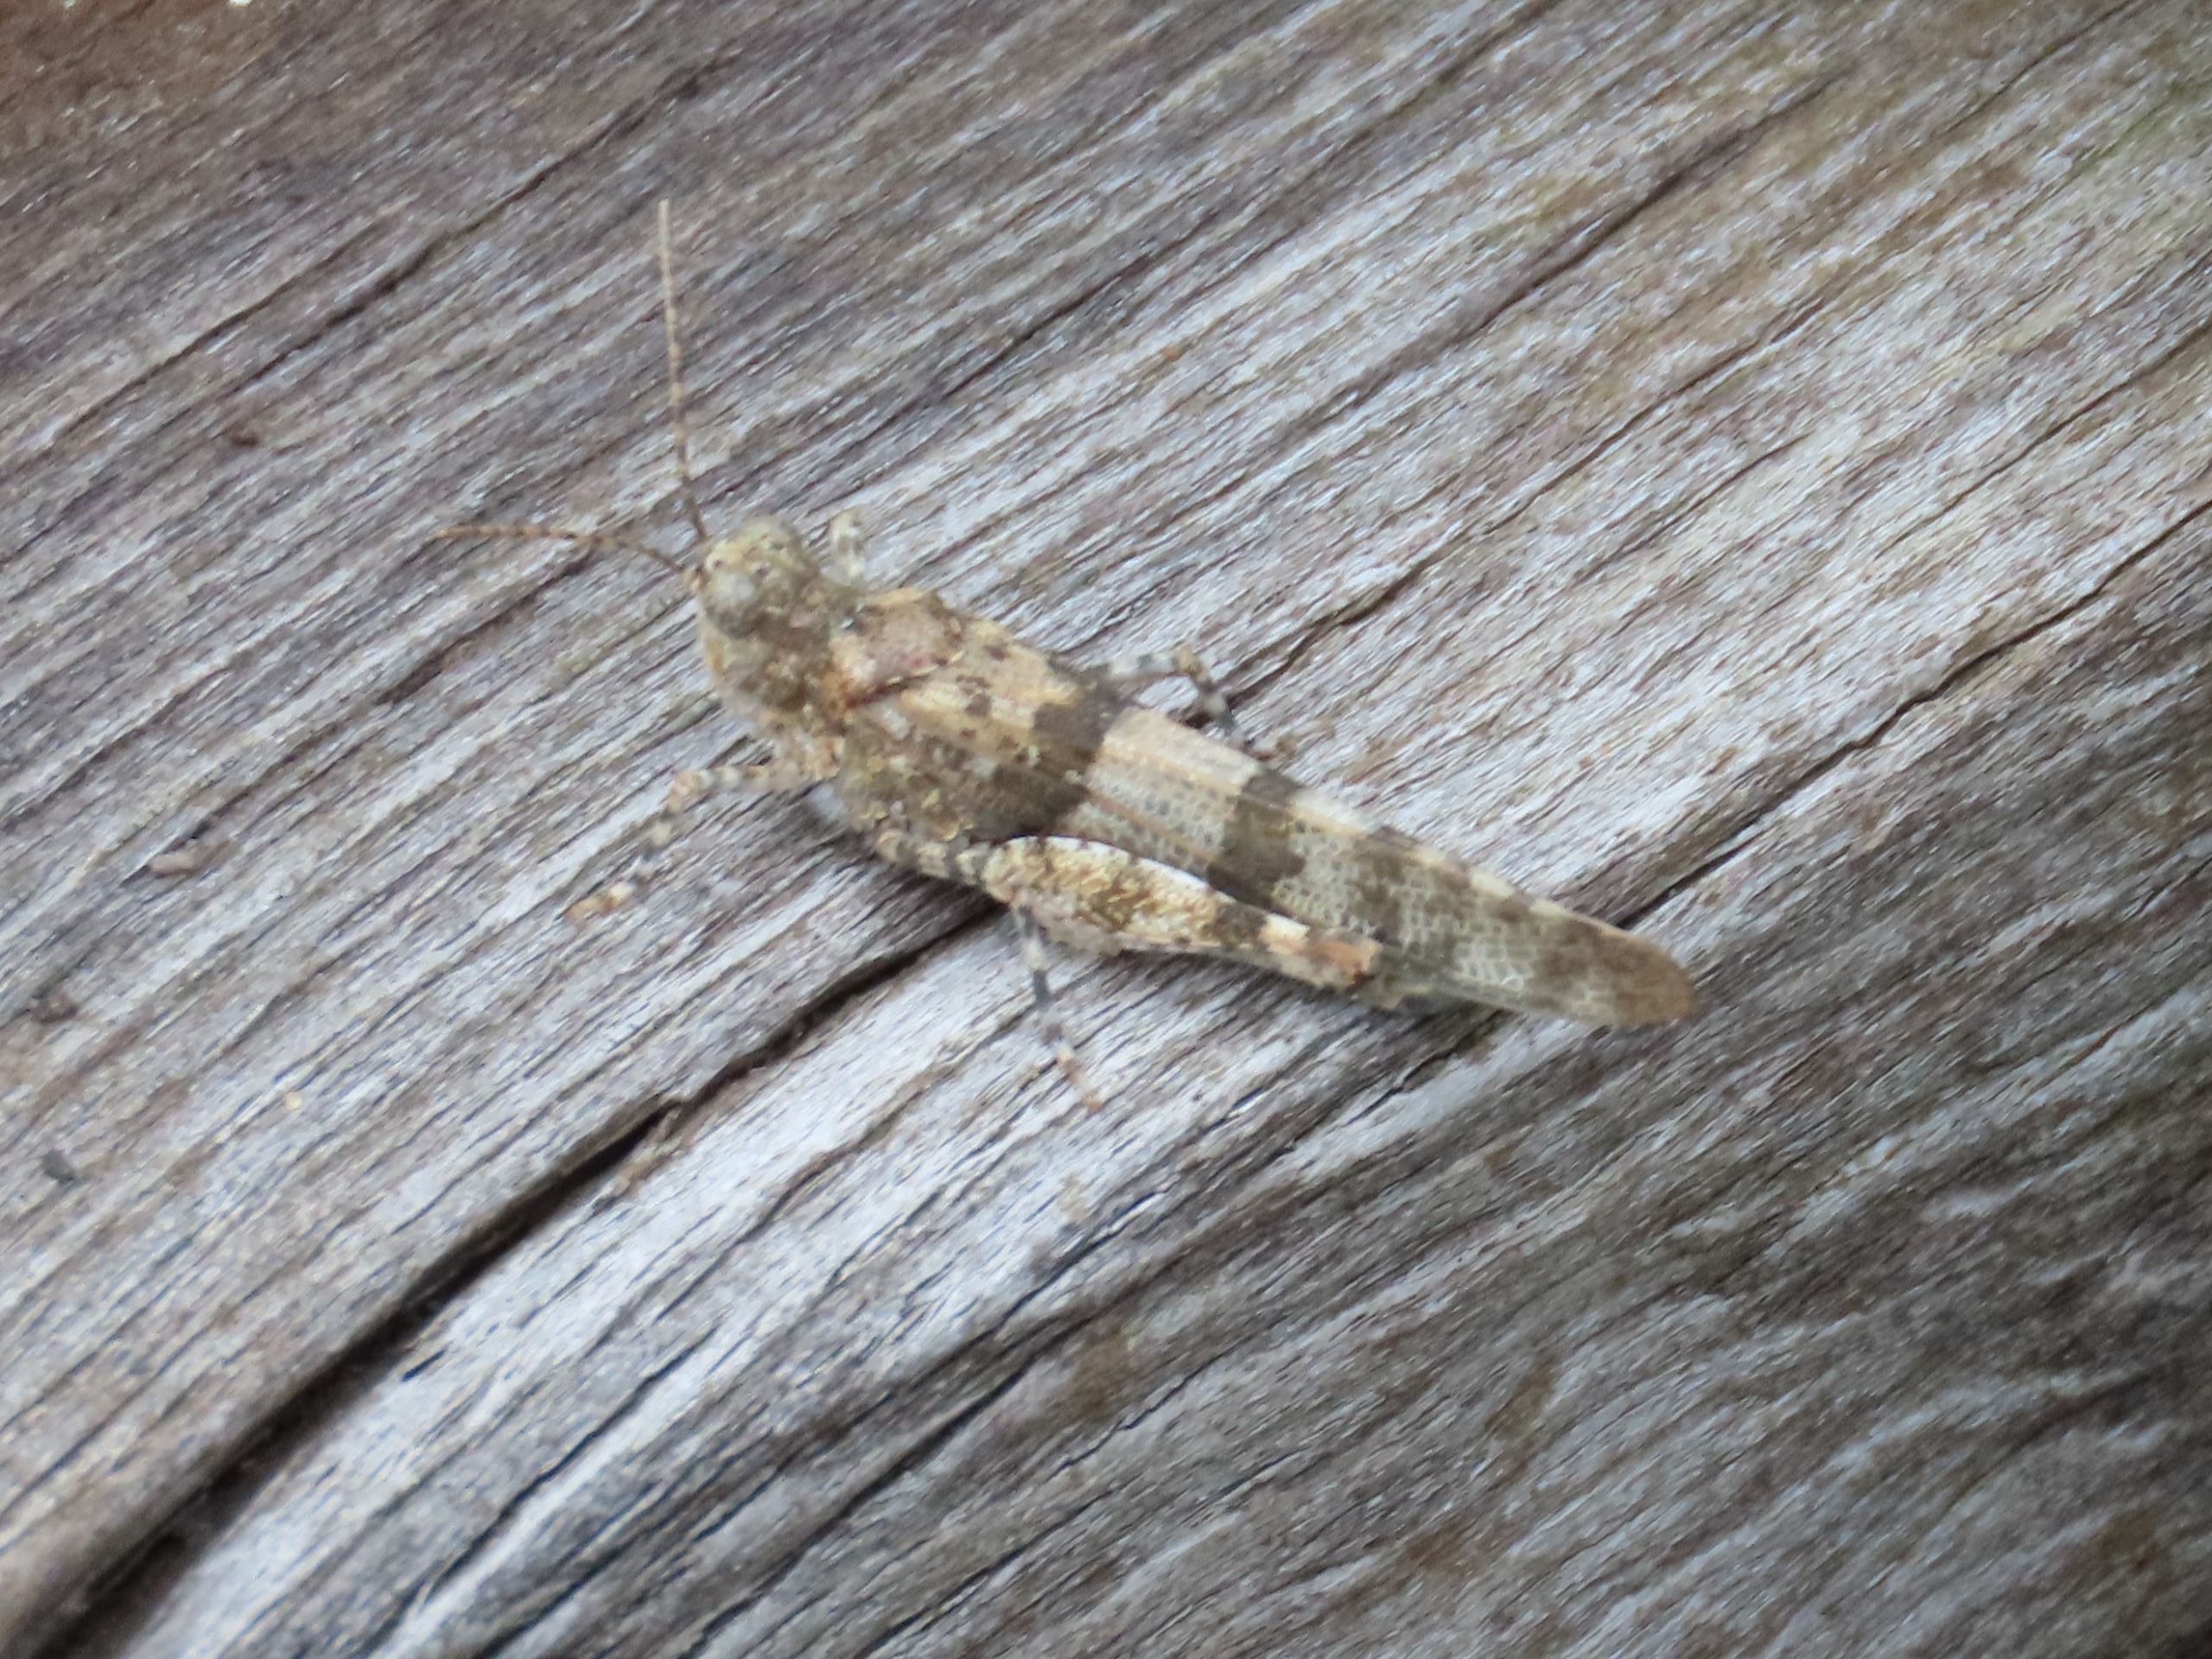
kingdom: Animalia
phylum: Arthropoda
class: Insecta
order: Orthoptera
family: Acrididae
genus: Sphingonotus
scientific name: Sphingonotus caerulans
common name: Blåvinget steppegræshoppe
